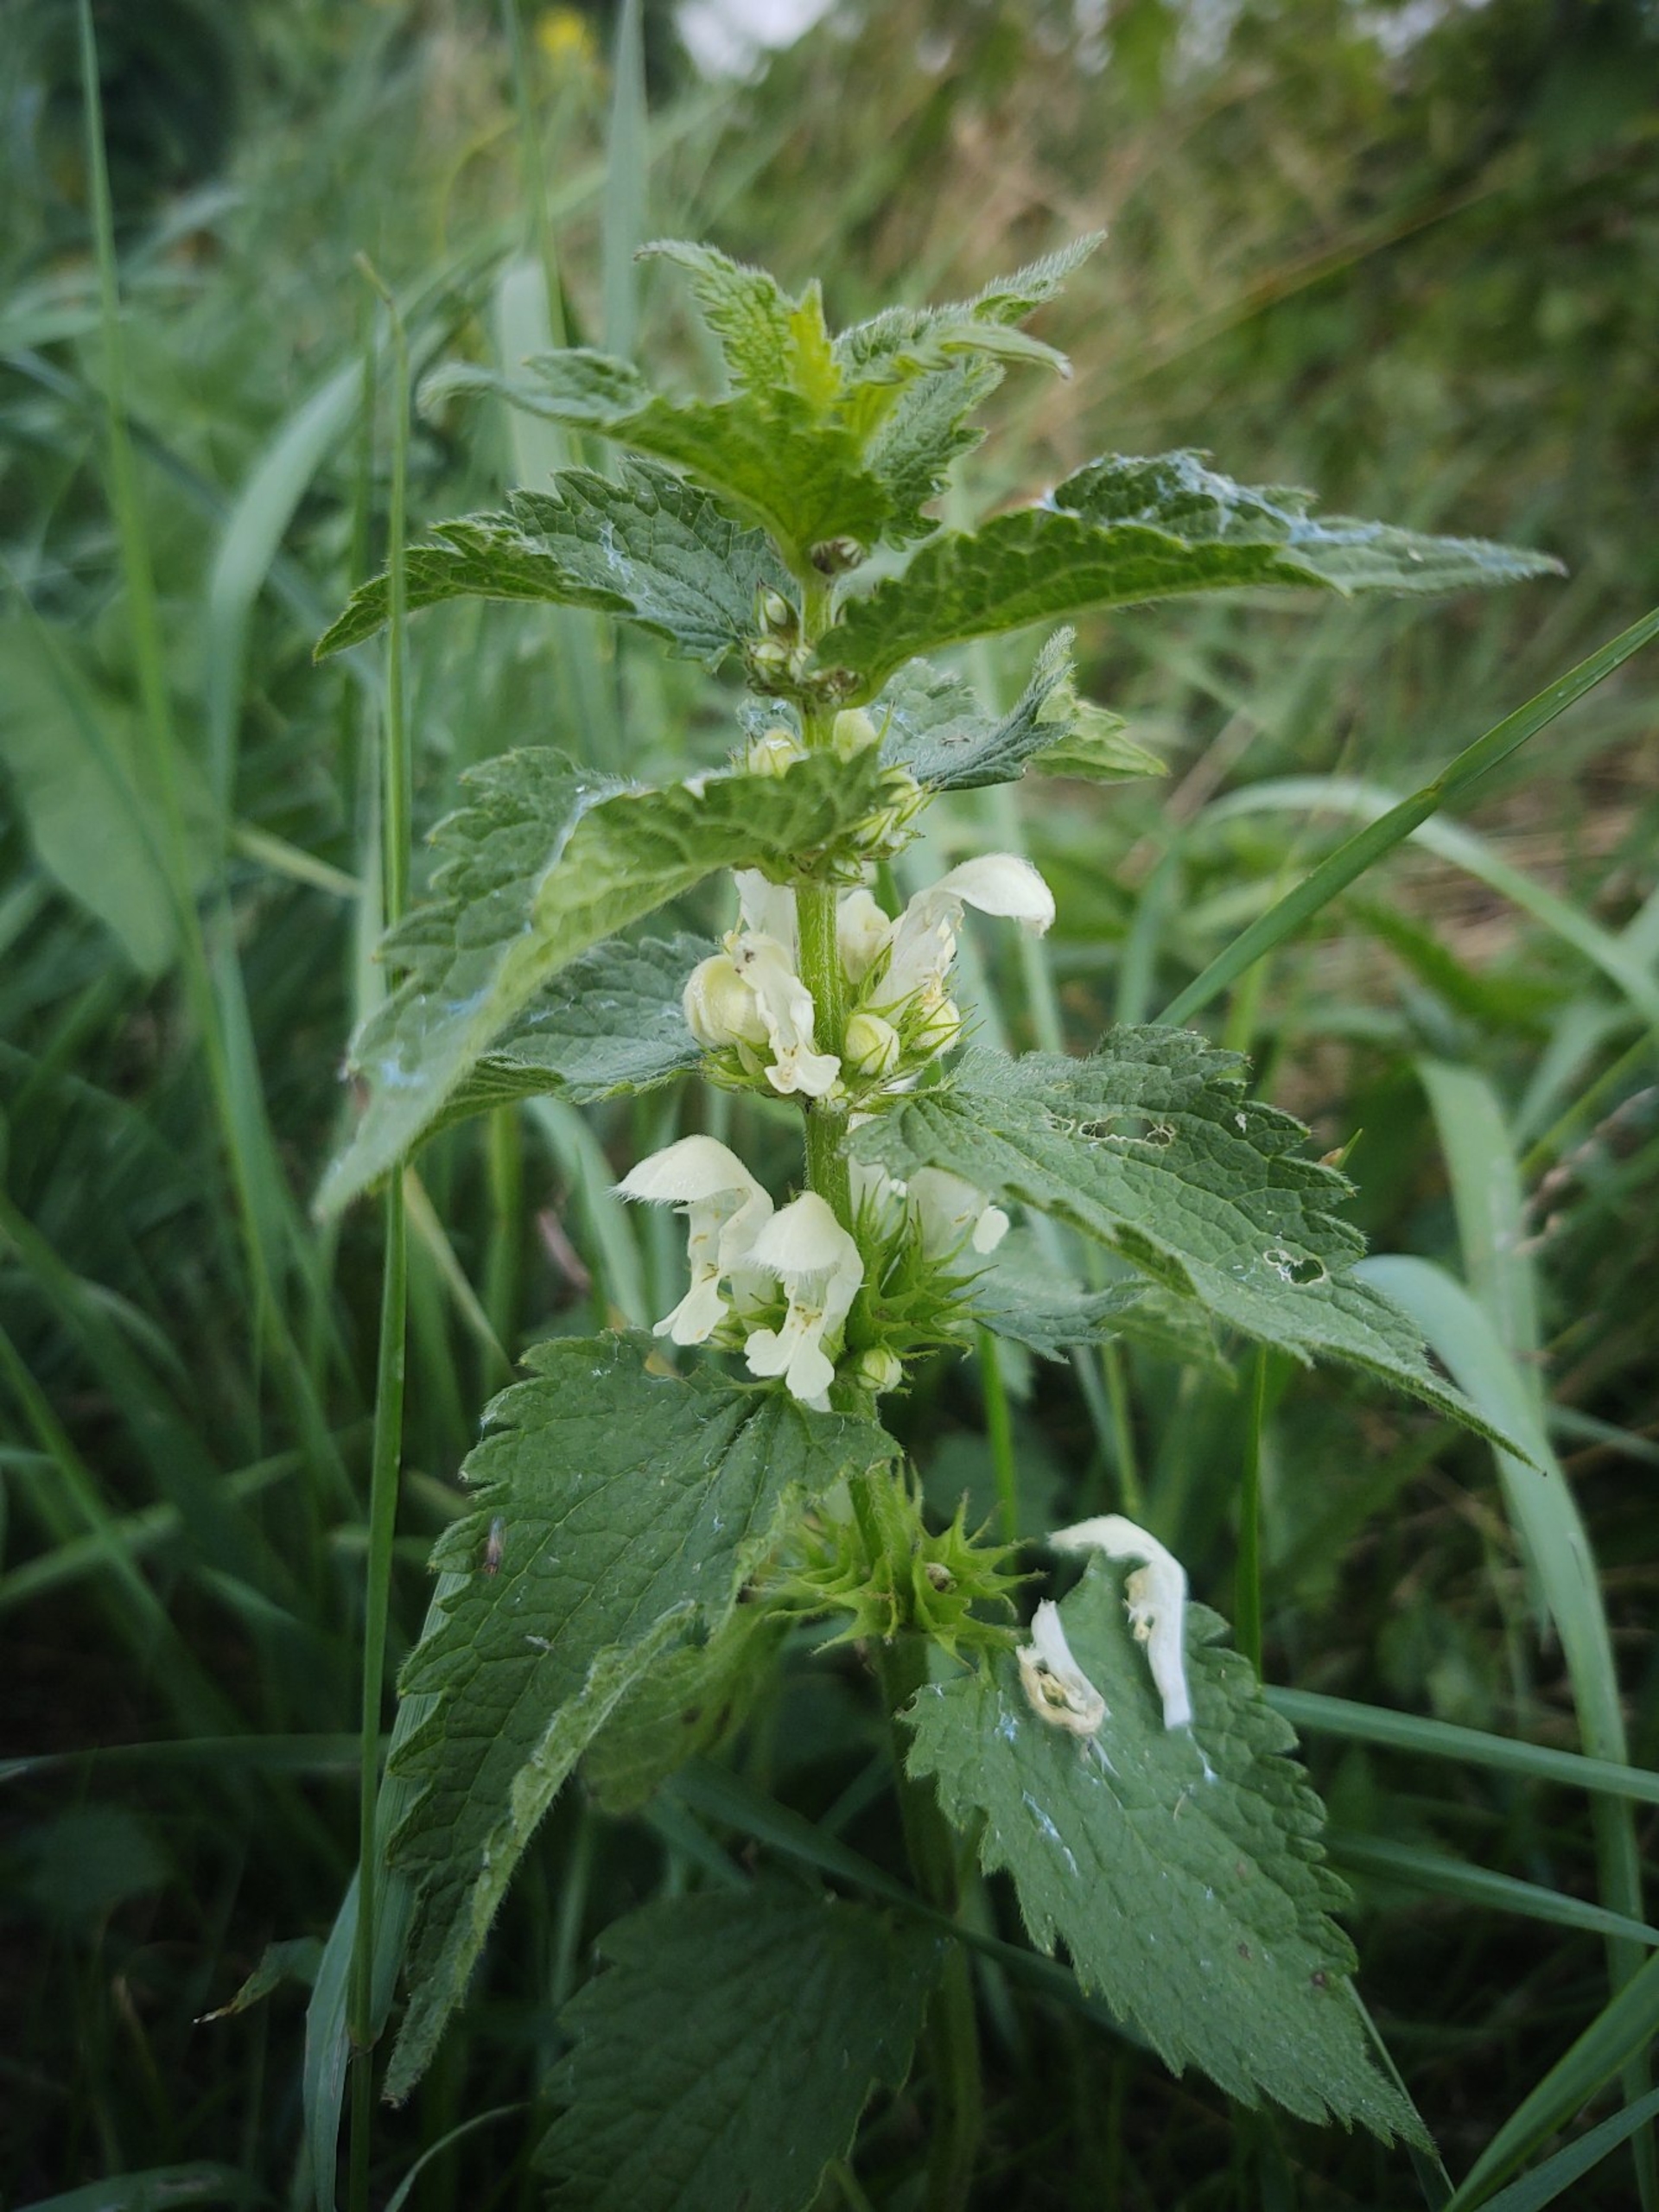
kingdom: Plantae
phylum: Tracheophyta
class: Magnoliopsida
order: Lamiales
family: Lamiaceae
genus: Lamium
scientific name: Lamium album
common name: Døvnælde
